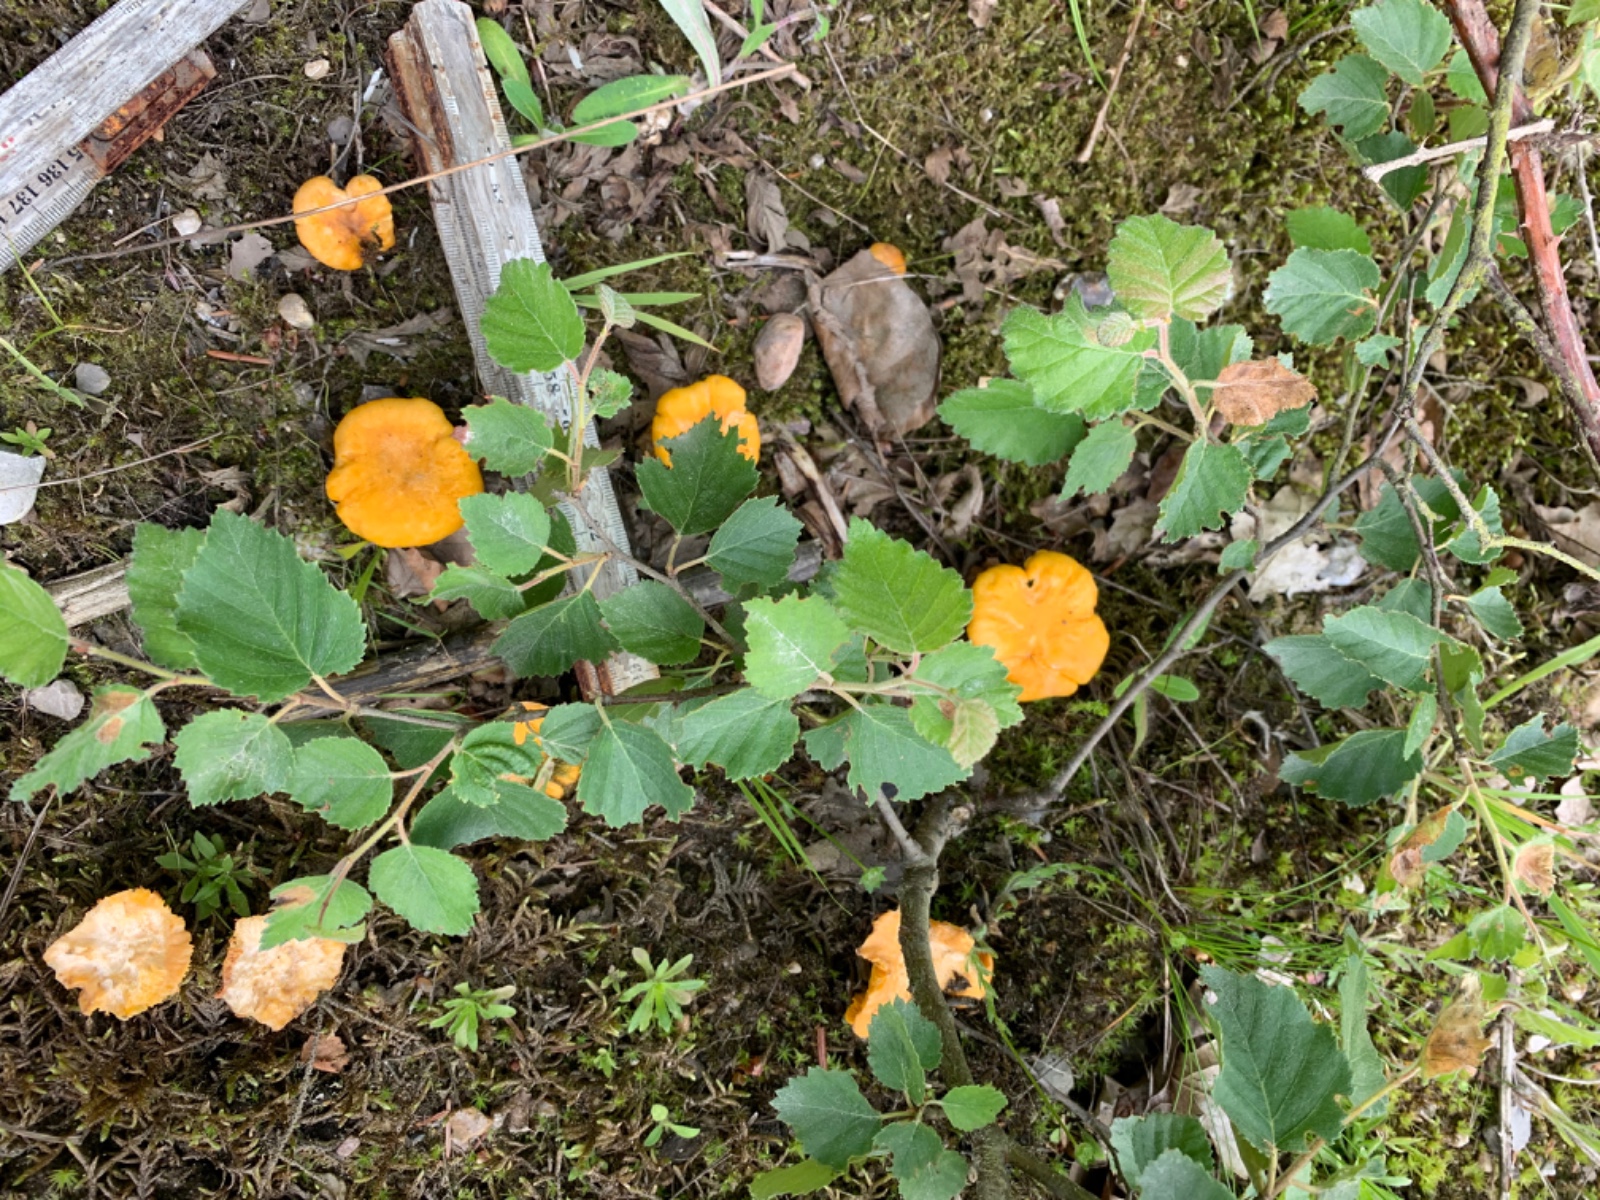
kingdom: Fungi
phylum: Basidiomycota
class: Agaricomycetes
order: Cantharellales
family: Hydnaceae
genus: Cantharellus
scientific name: Cantharellus cibarius
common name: almindelig kantarel
